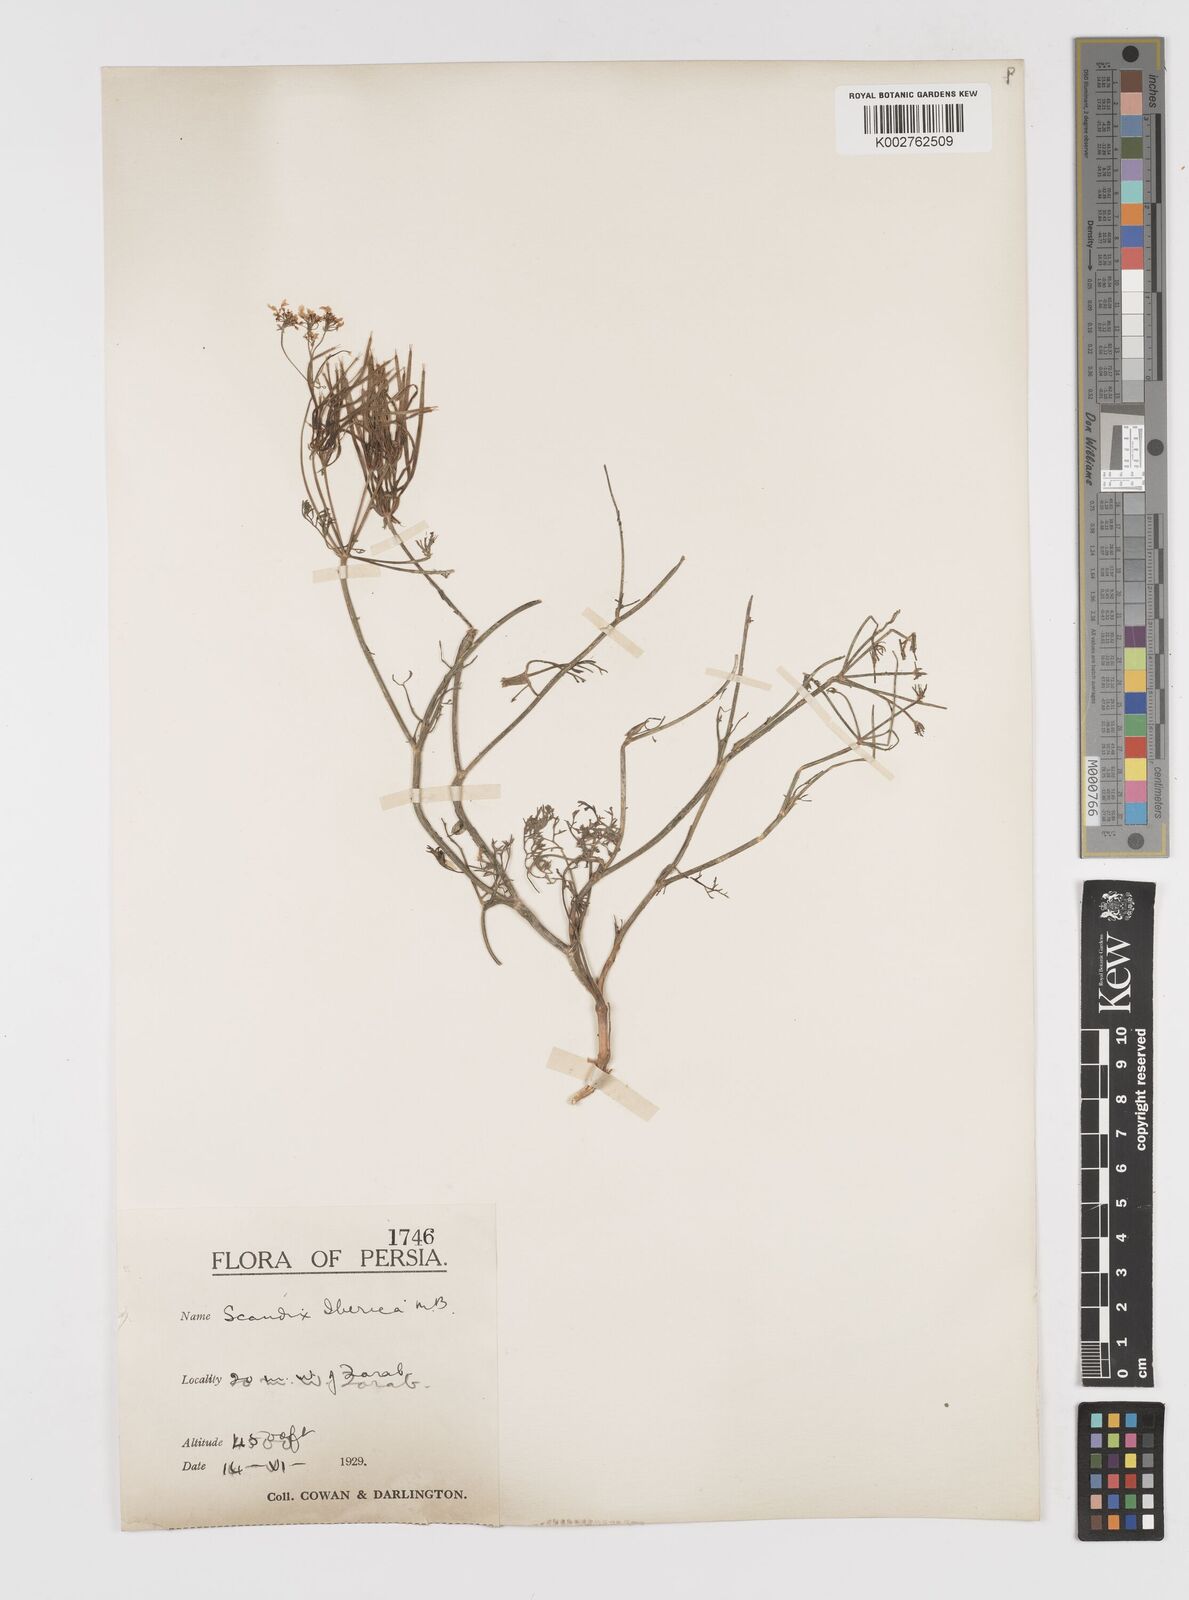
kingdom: Plantae
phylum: Tracheophyta
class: Magnoliopsida
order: Apiales
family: Apiaceae
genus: Scandix
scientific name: Scandix iberica
